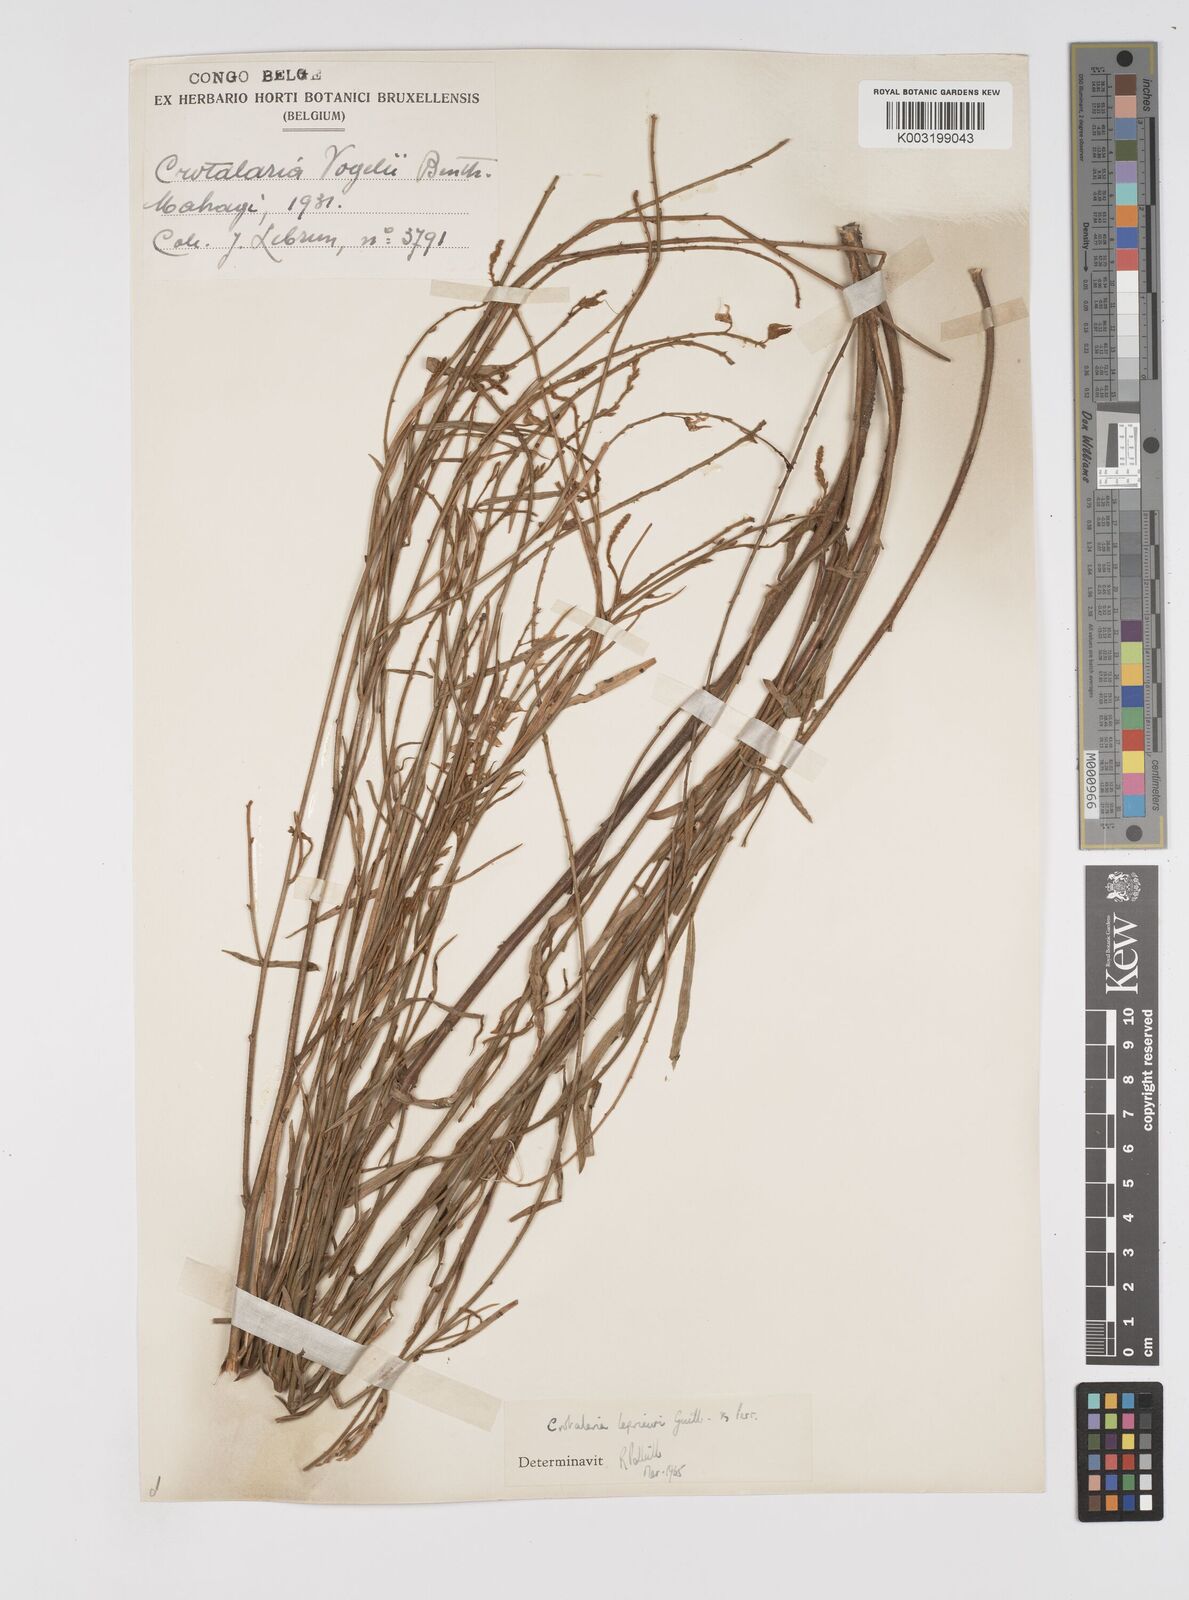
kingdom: Plantae
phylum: Tracheophyta
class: Magnoliopsida
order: Fabales
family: Fabaceae
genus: Crotalaria
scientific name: Crotalaria leprieurii
